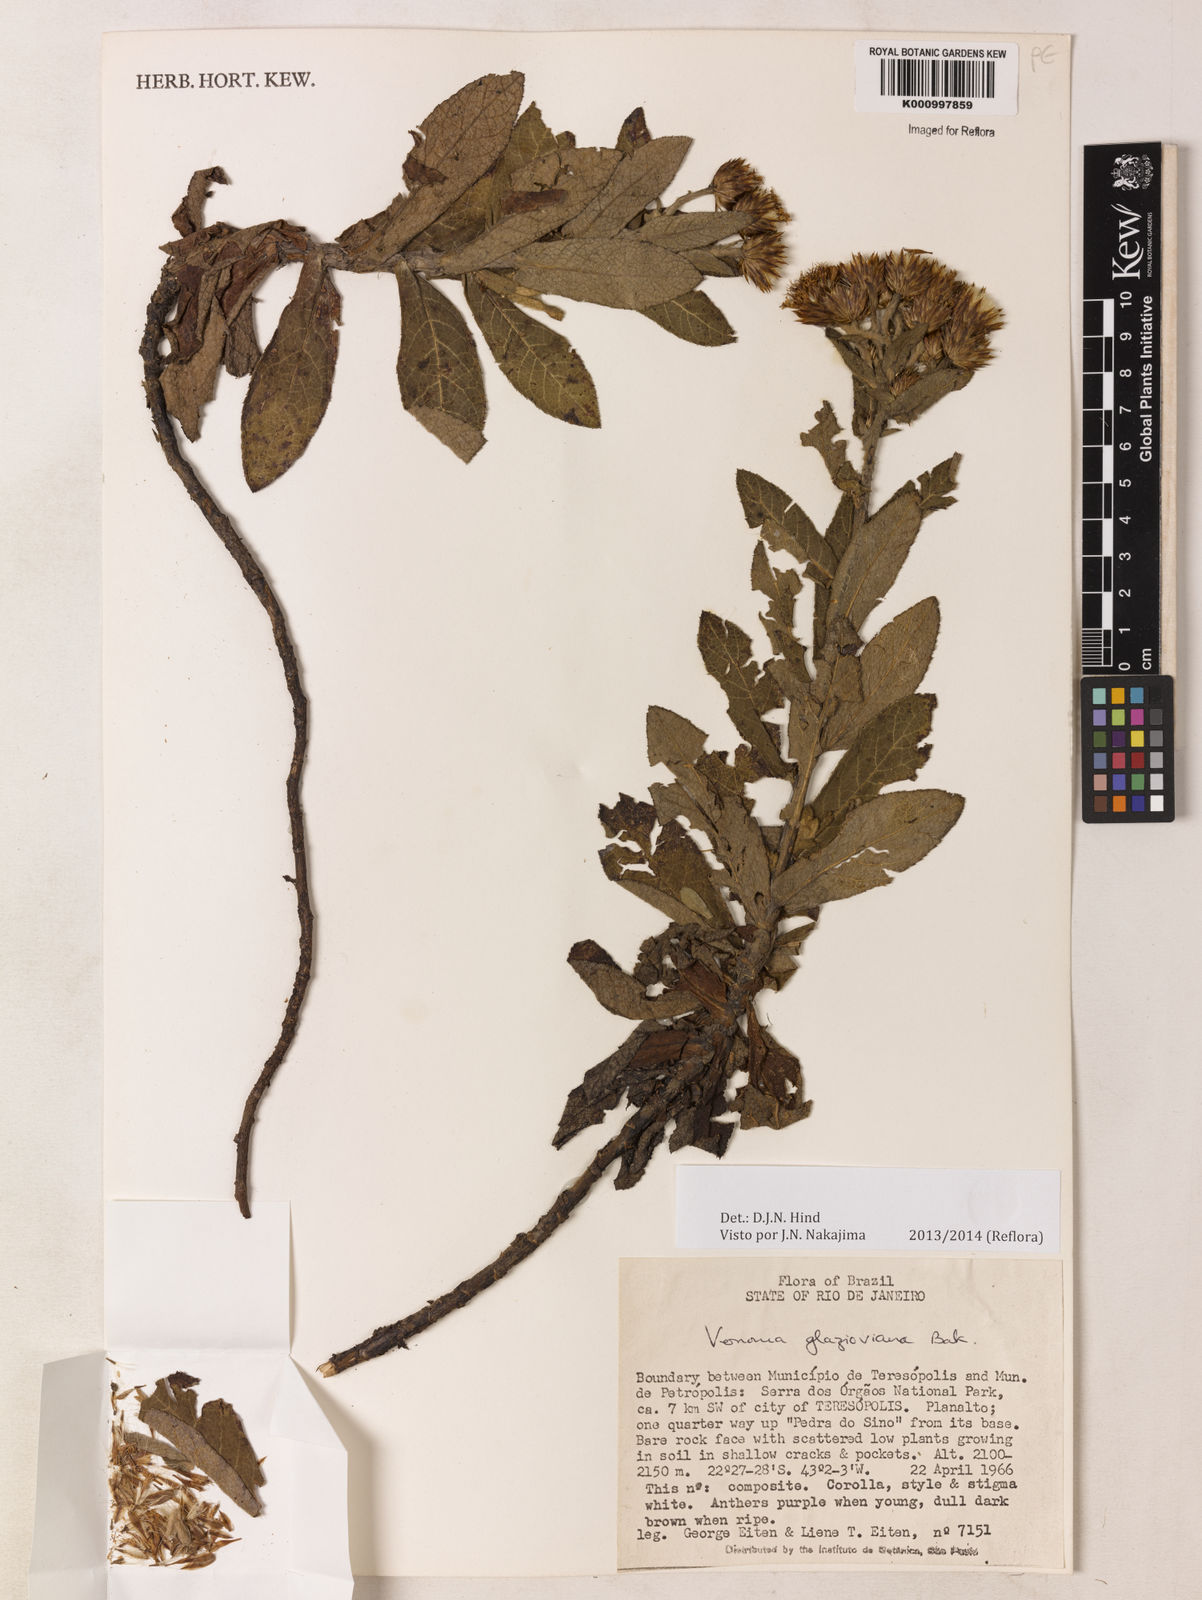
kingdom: Plantae
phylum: Tracheophyta
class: Magnoliopsida
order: Asterales
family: Asteraceae
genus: Lessingianthus
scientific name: Lessingianthus glaziovianus
